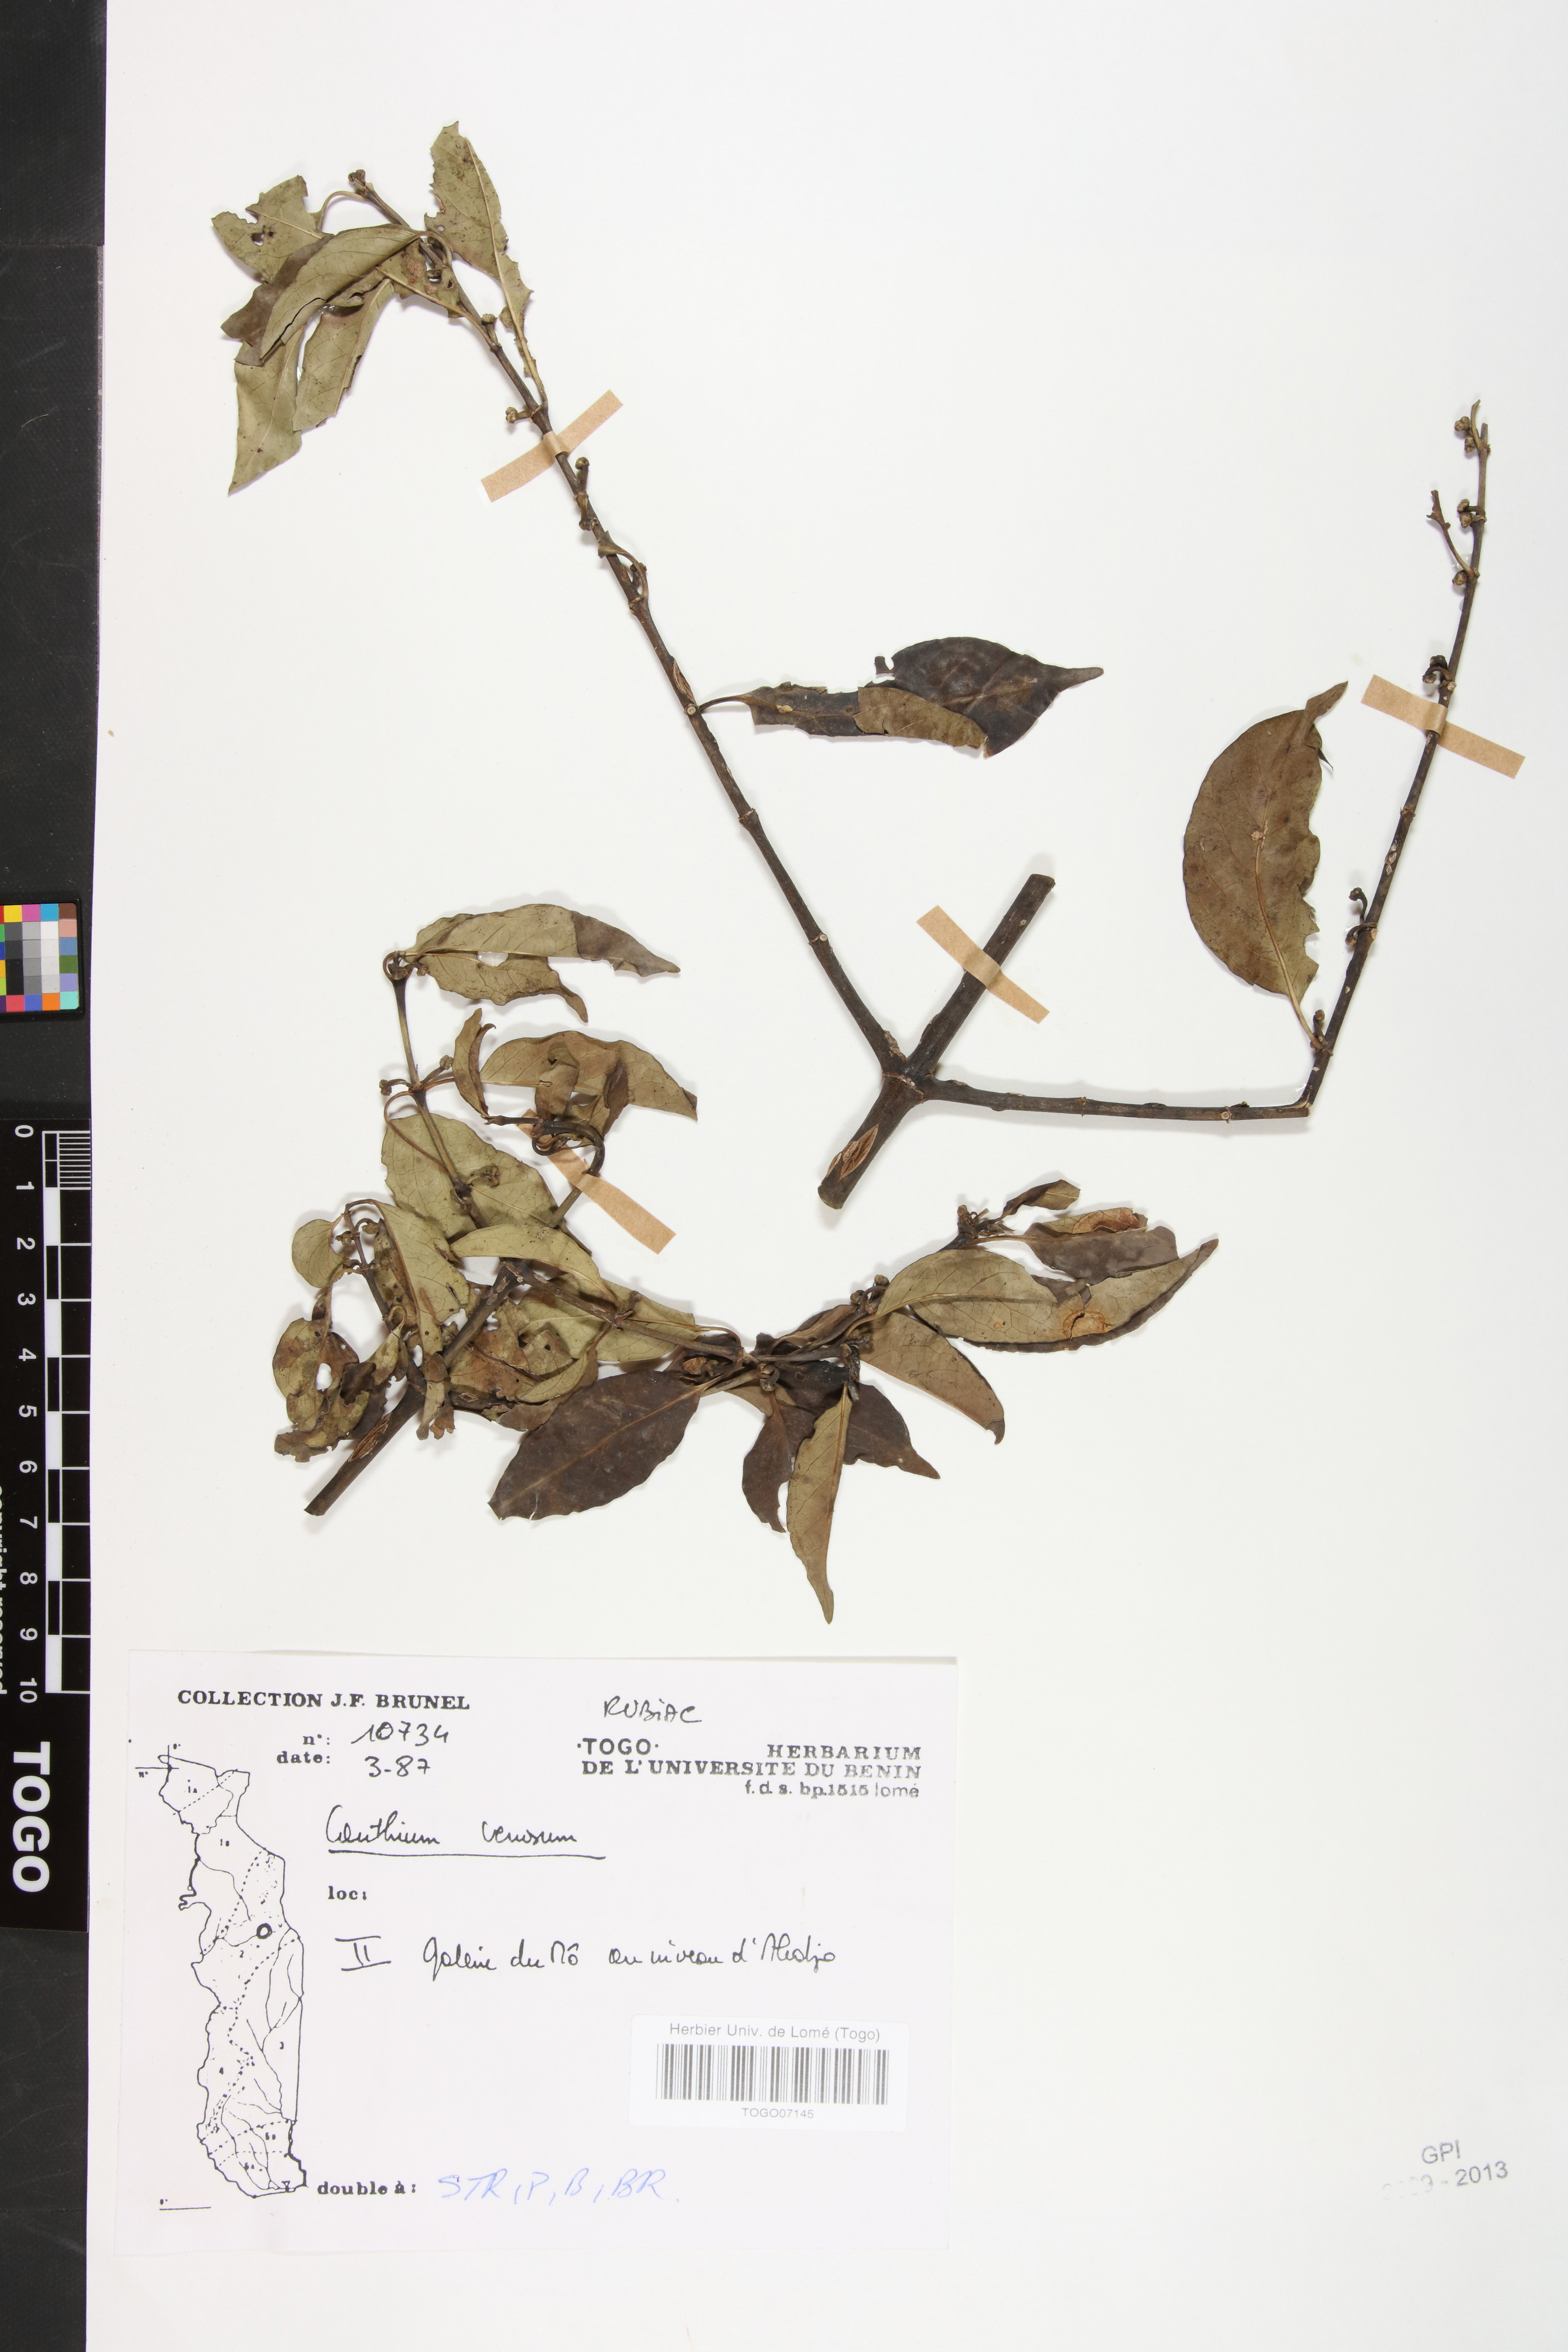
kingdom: Plantae
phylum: Tracheophyta
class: Magnoliopsida
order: Gentianales
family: Rubiaceae
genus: Keetia
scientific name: Keetia venosa
